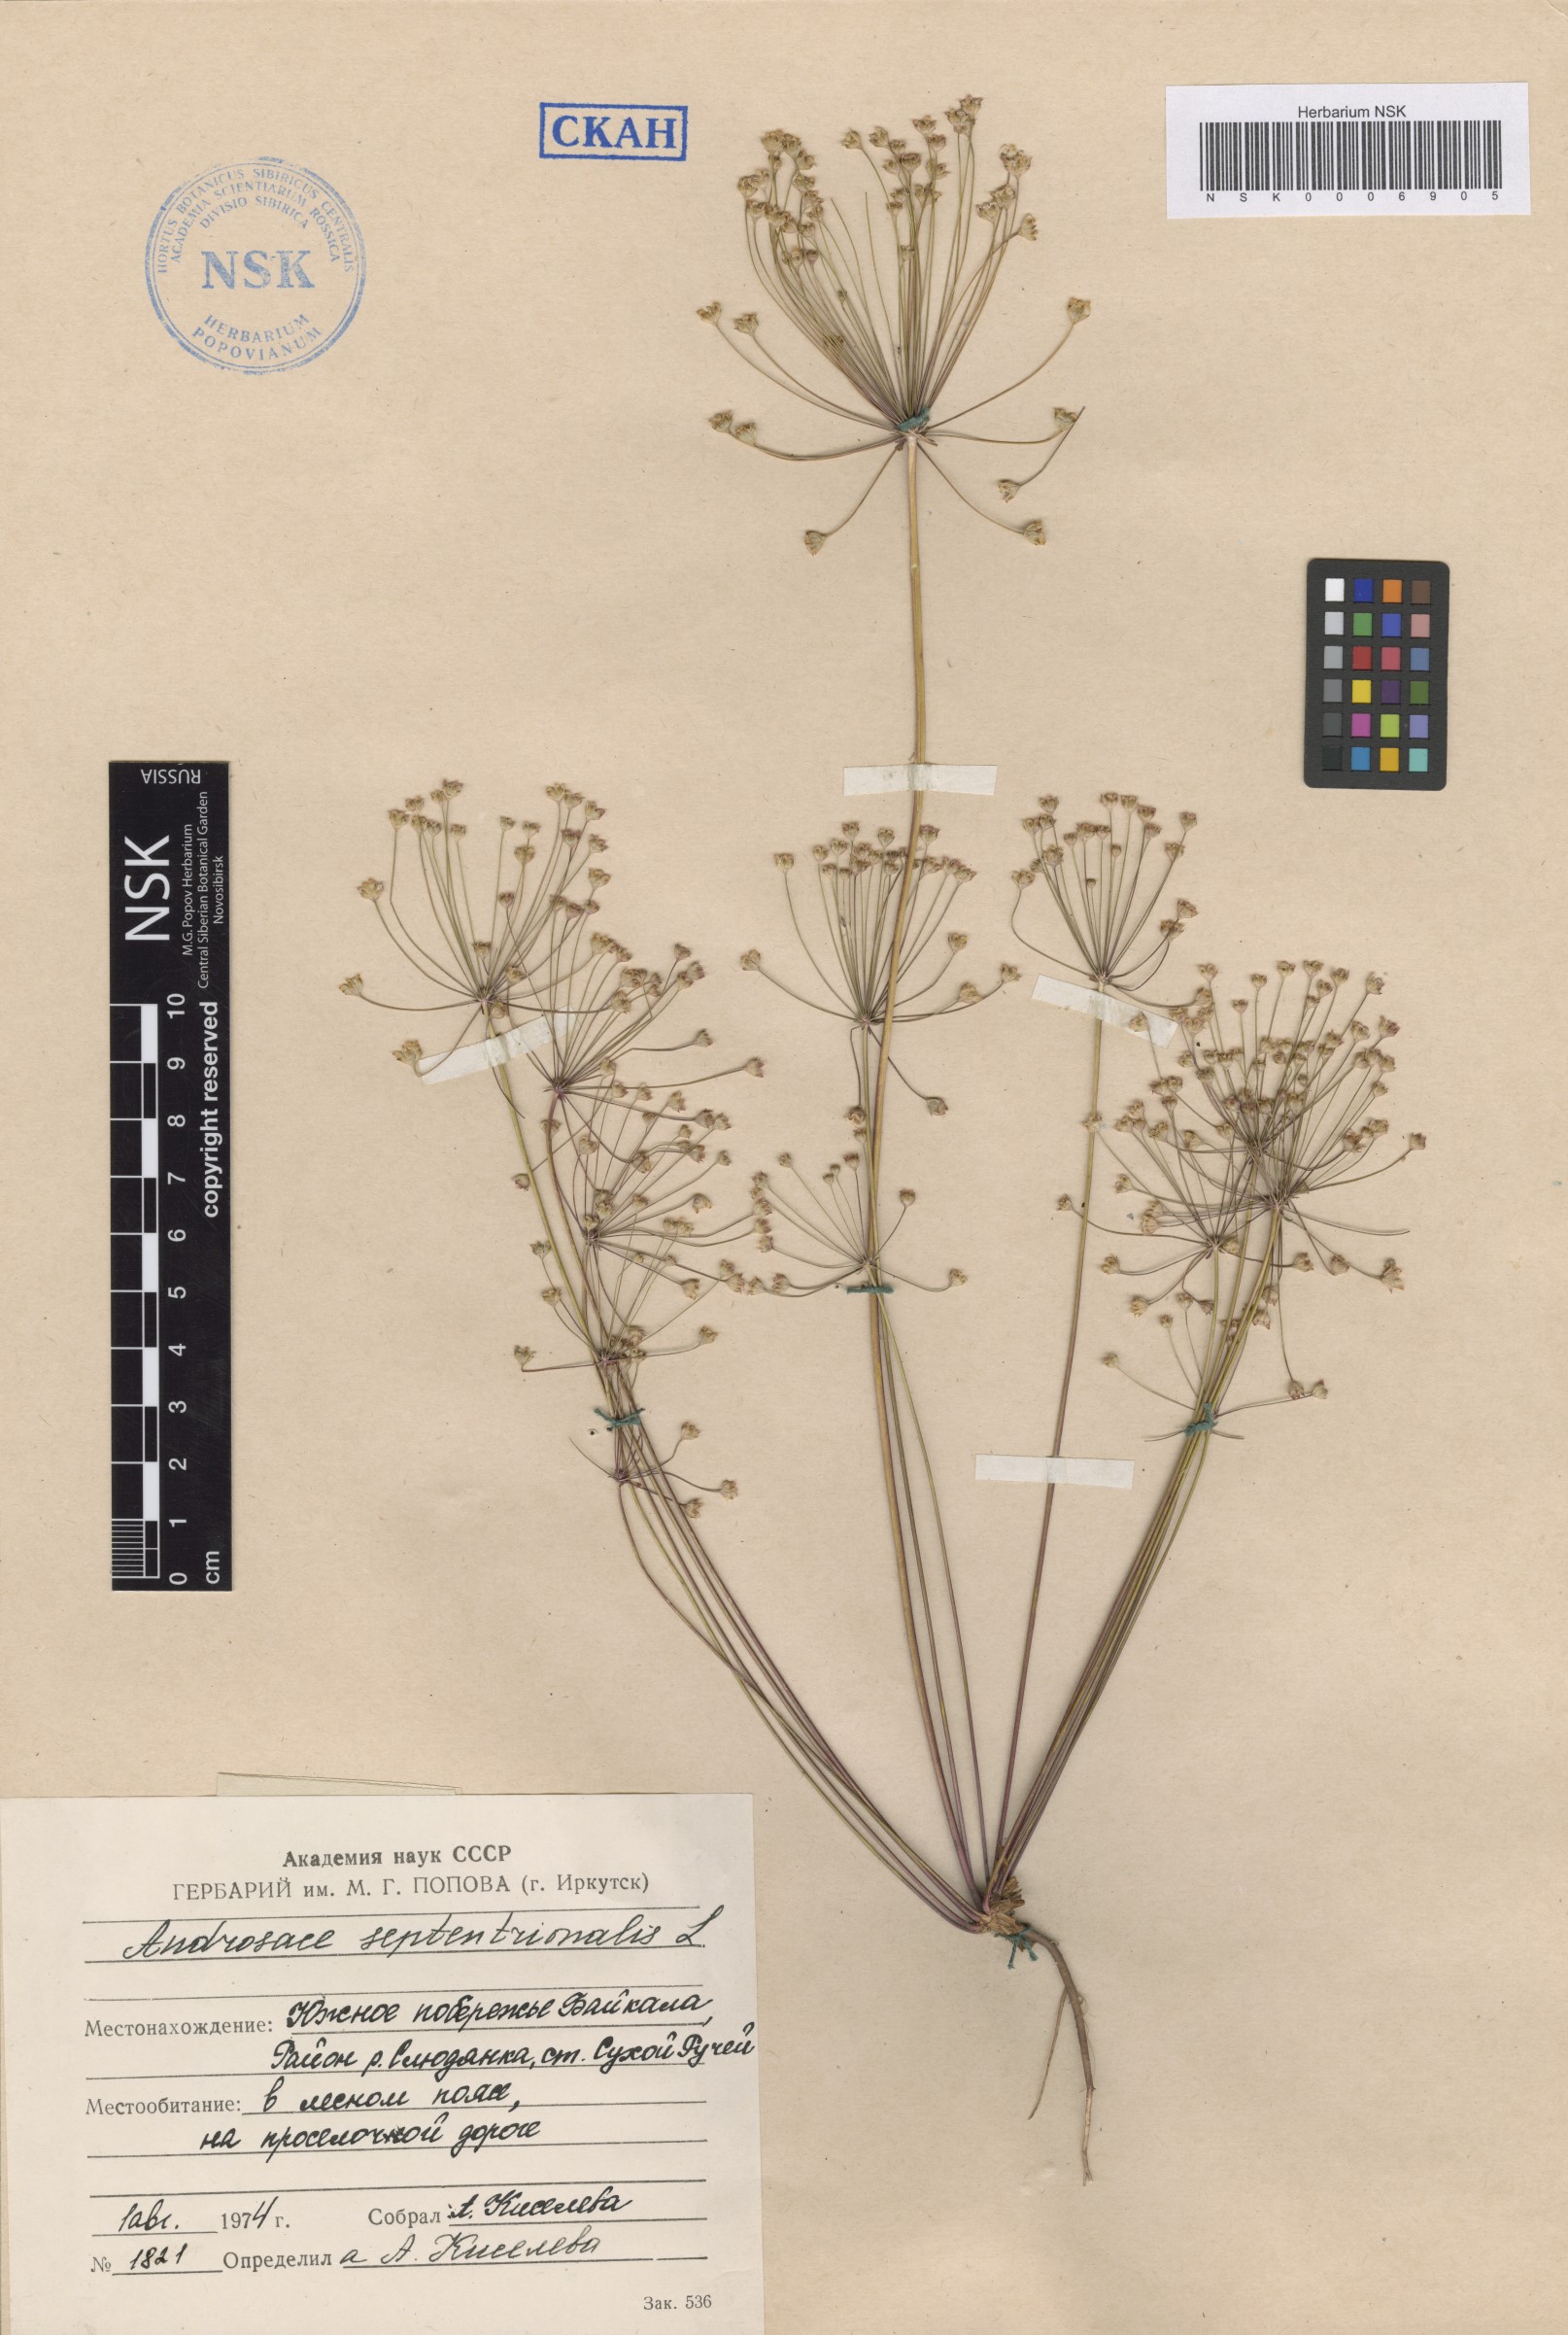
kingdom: Plantae
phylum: Tracheophyta
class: Magnoliopsida
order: Ericales
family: Primulaceae
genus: Androsace
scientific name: Androsace septentrionalis
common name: Hairy northern fairy-candelabra
